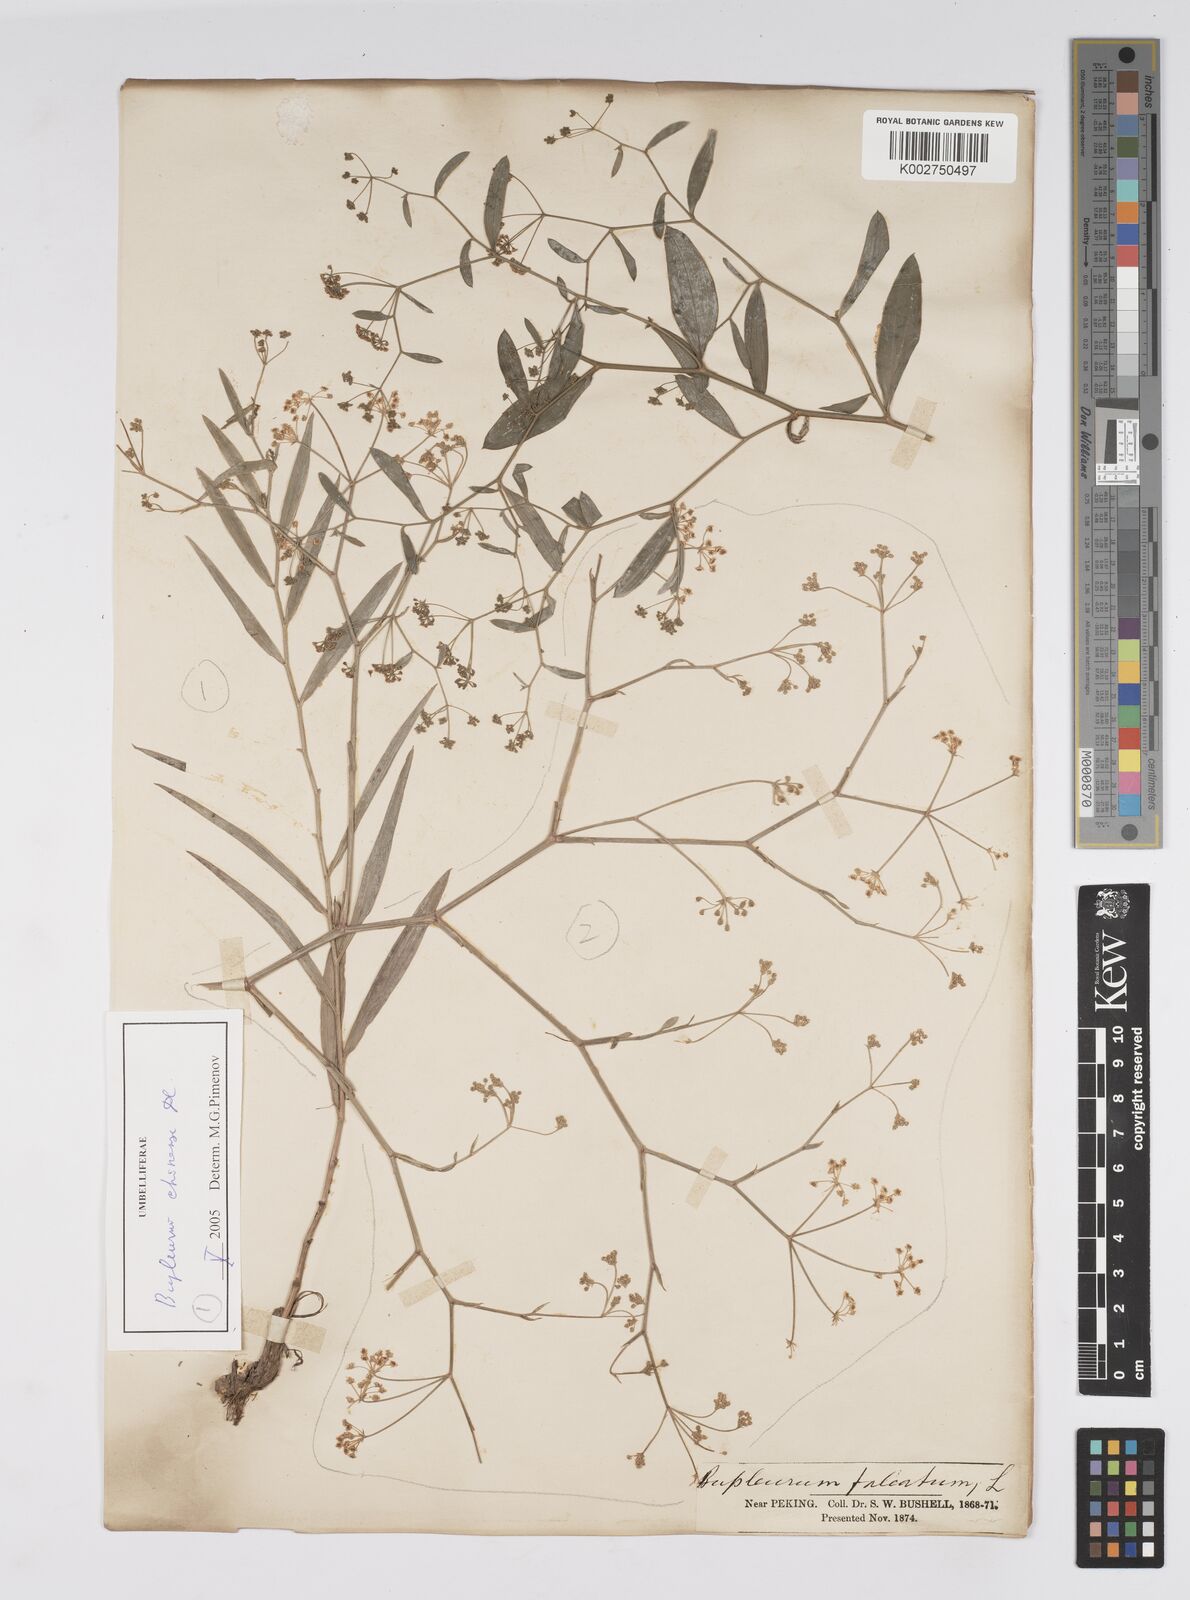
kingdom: Plantae
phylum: Tracheophyta
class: Magnoliopsida
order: Apiales
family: Apiaceae
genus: Bupleurum
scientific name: Bupleurum krylovianum
